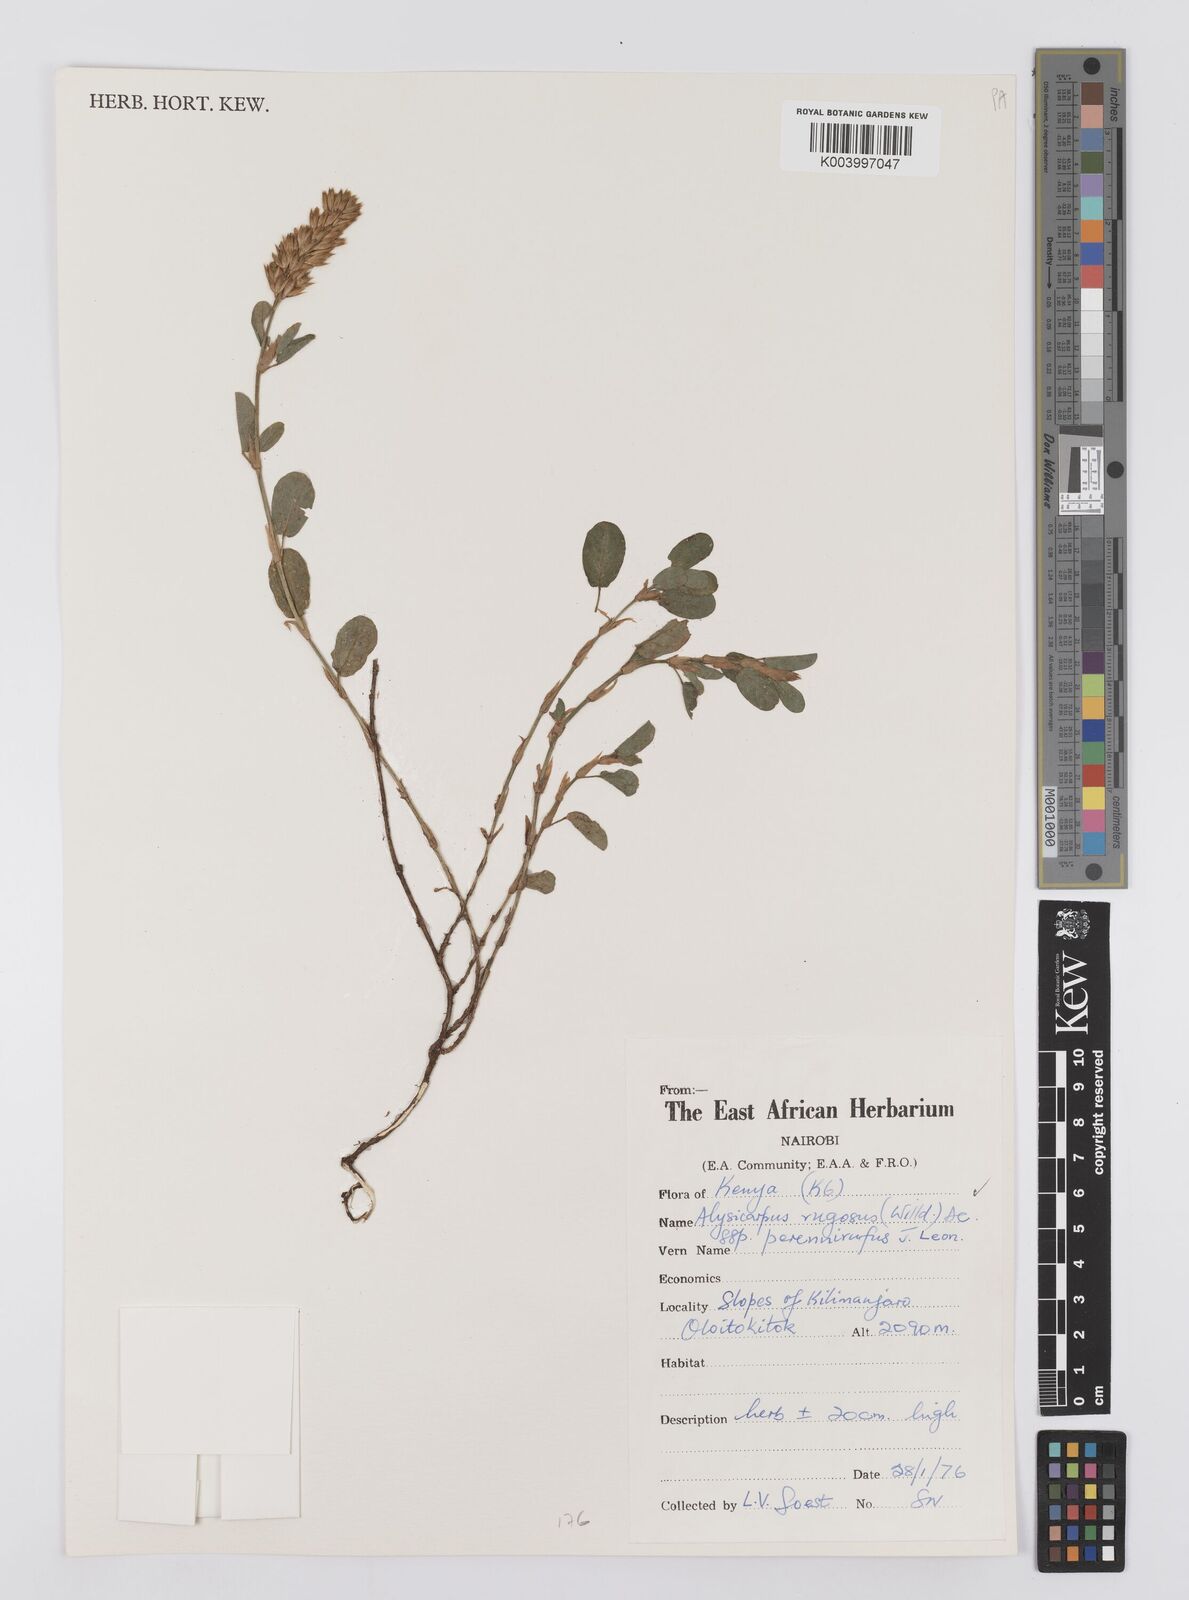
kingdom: Plantae
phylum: Tracheophyta
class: Magnoliopsida
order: Fabales
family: Fabaceae
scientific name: Fabaceae
